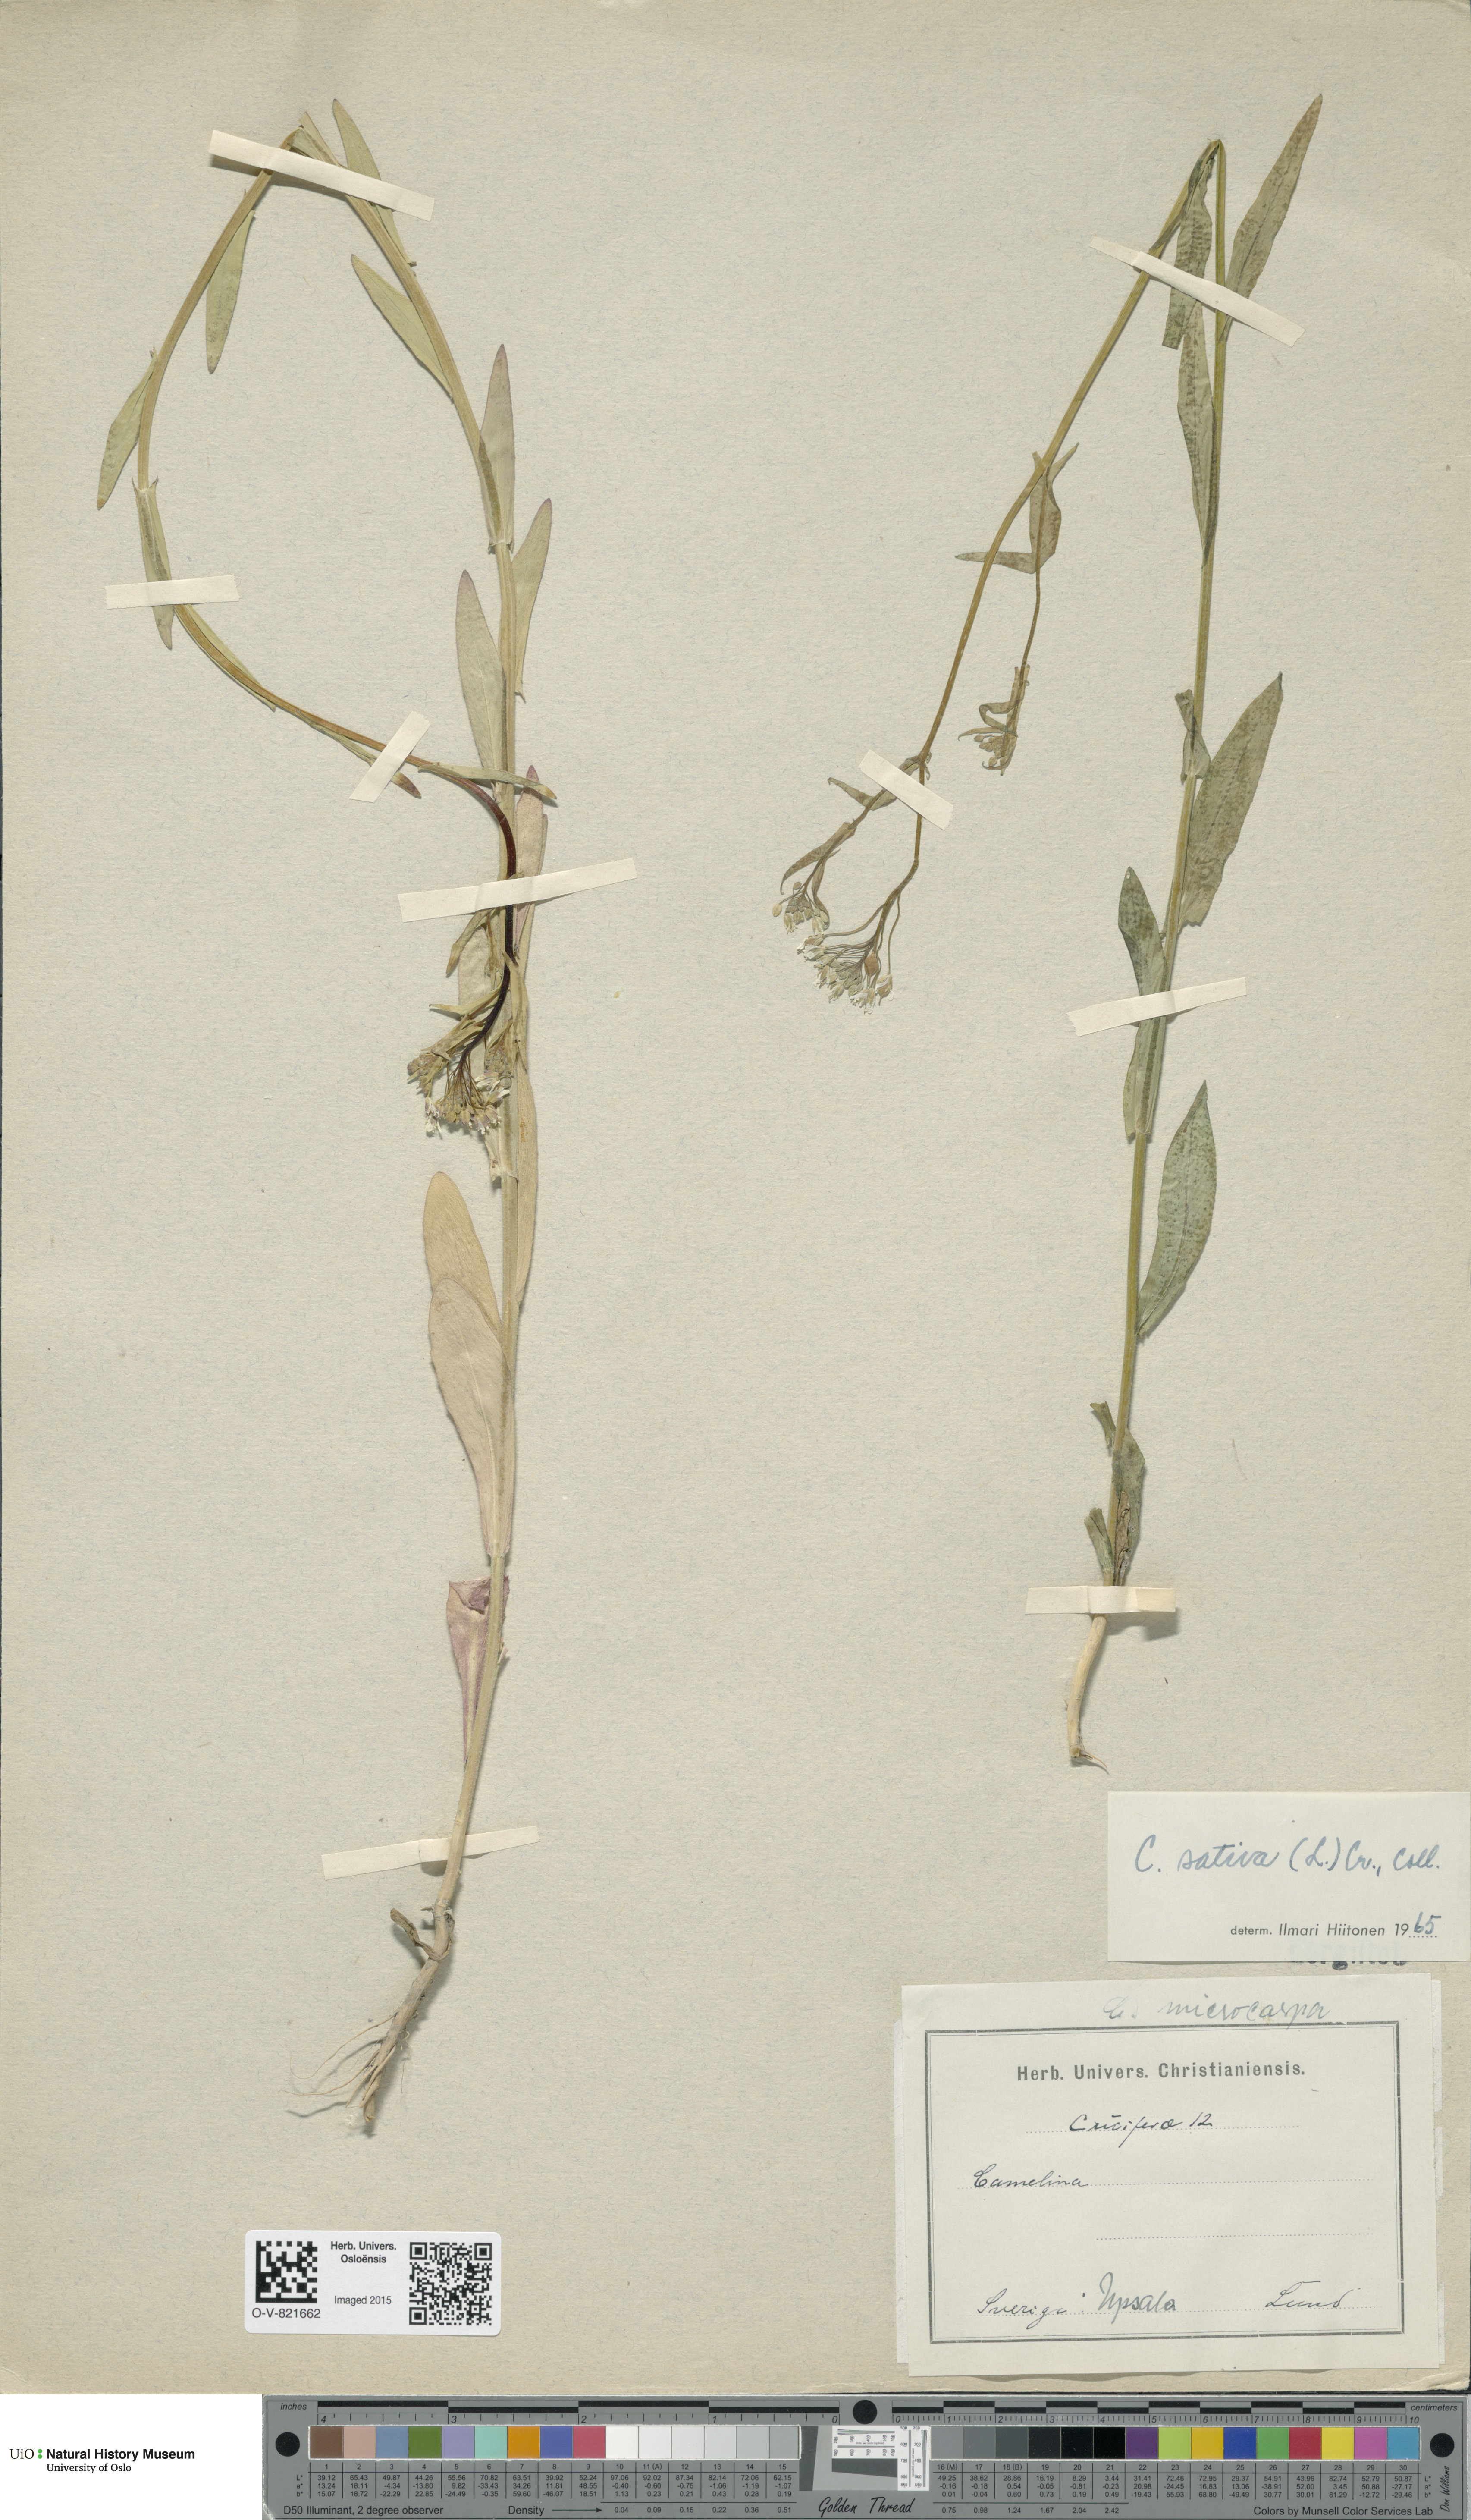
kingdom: Plantae
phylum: Tracheophyta
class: Magnoliopsida
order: Brassicales
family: Brassicaceae
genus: Camelina
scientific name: Camelina sativa
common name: Gold-of-pleasure
